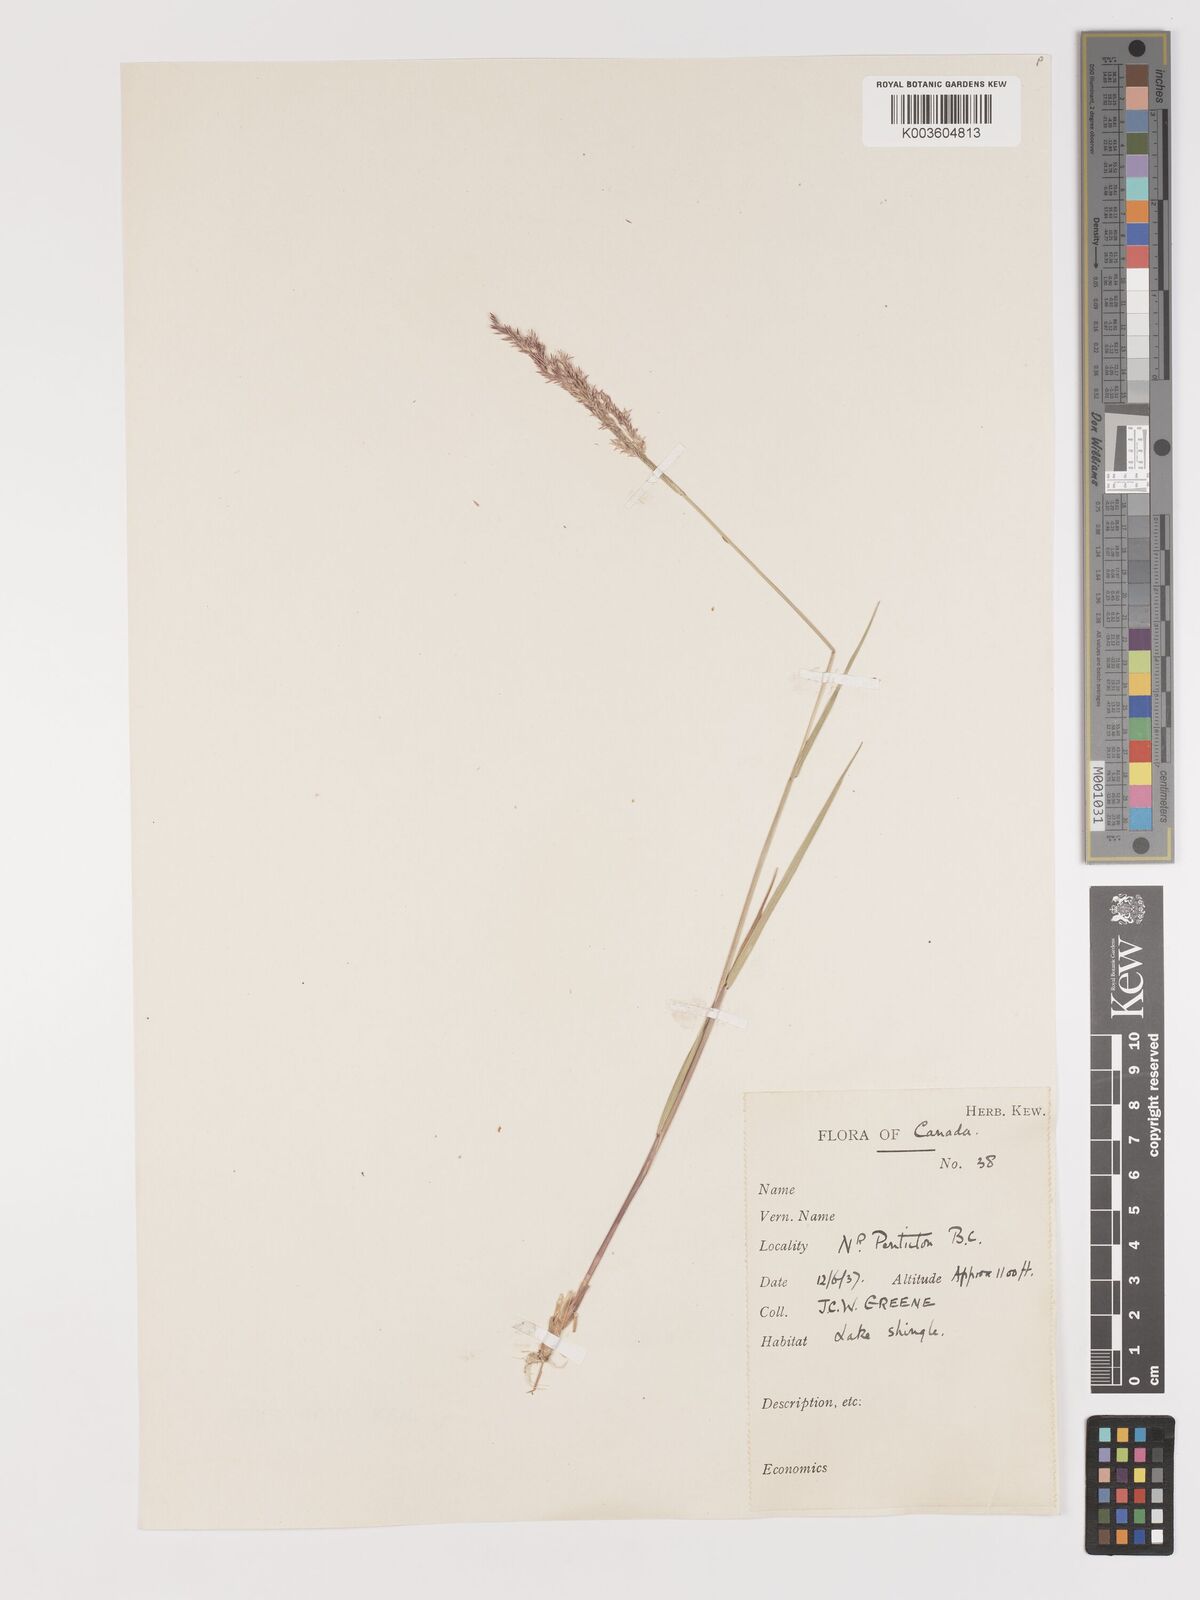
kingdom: Plantae
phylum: Tracheophyta
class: Liliopsida
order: Poales
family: Poaceae
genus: Agrostis
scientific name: Agrostis
